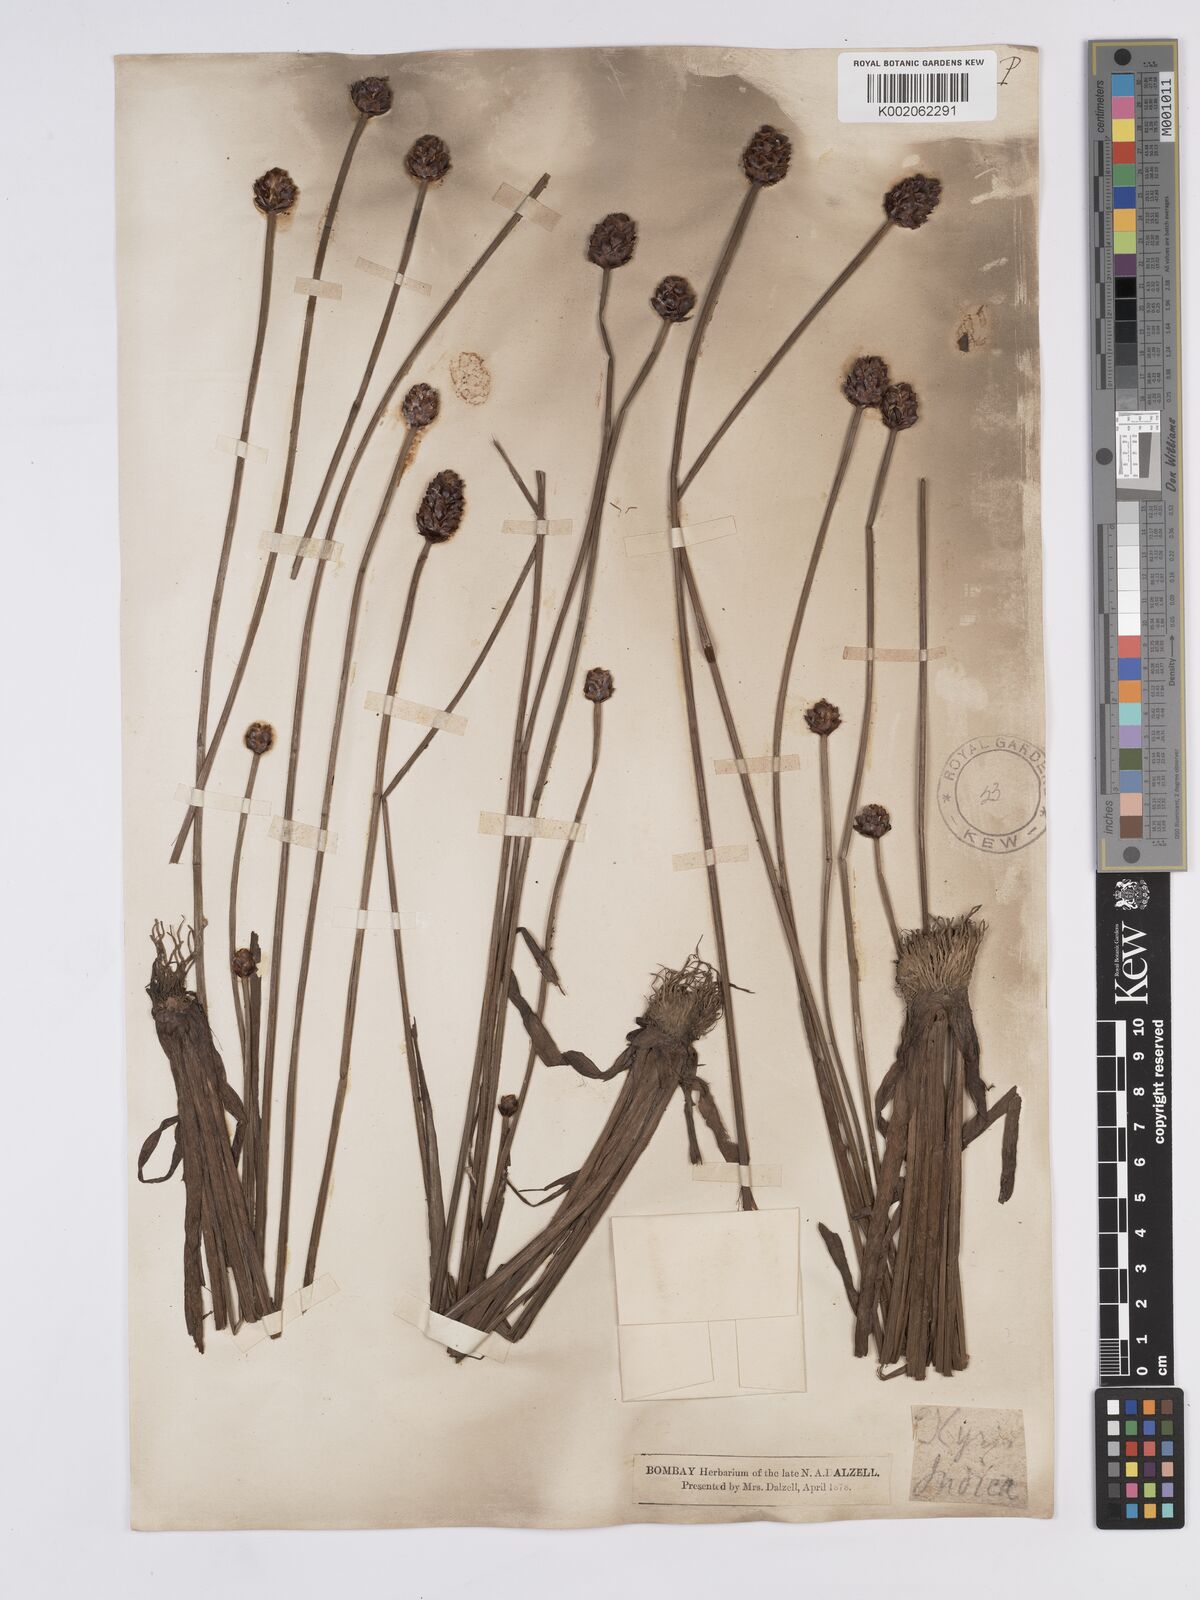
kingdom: Plantae
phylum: Tracheophyta
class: Liliopsida
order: Poales
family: Xyridaceae
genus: Xyris
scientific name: Xyris indica
